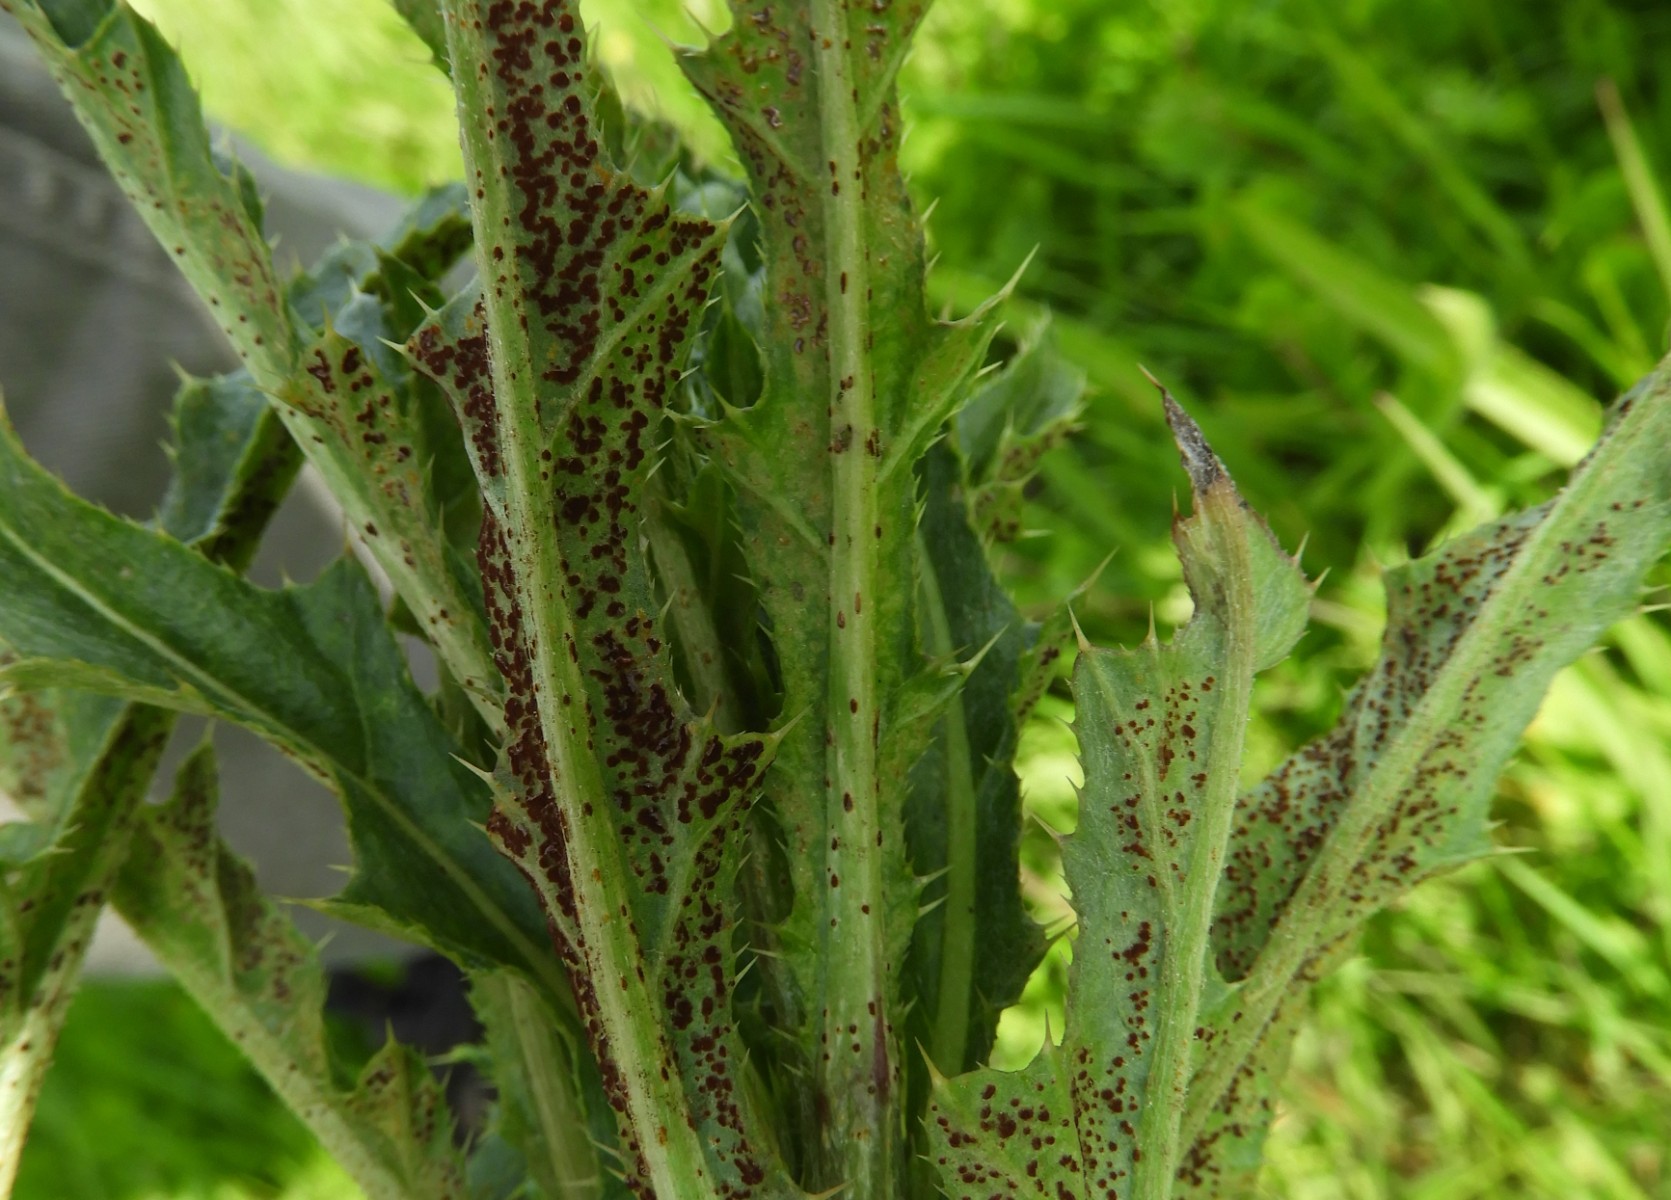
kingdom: Fungi
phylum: Basidiomycota
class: Pucciniomycetes
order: Pucciniales
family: Pucciniaceae
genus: Puccinia
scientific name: Puccinia suaveolens
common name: tidsel-tvecellerust
